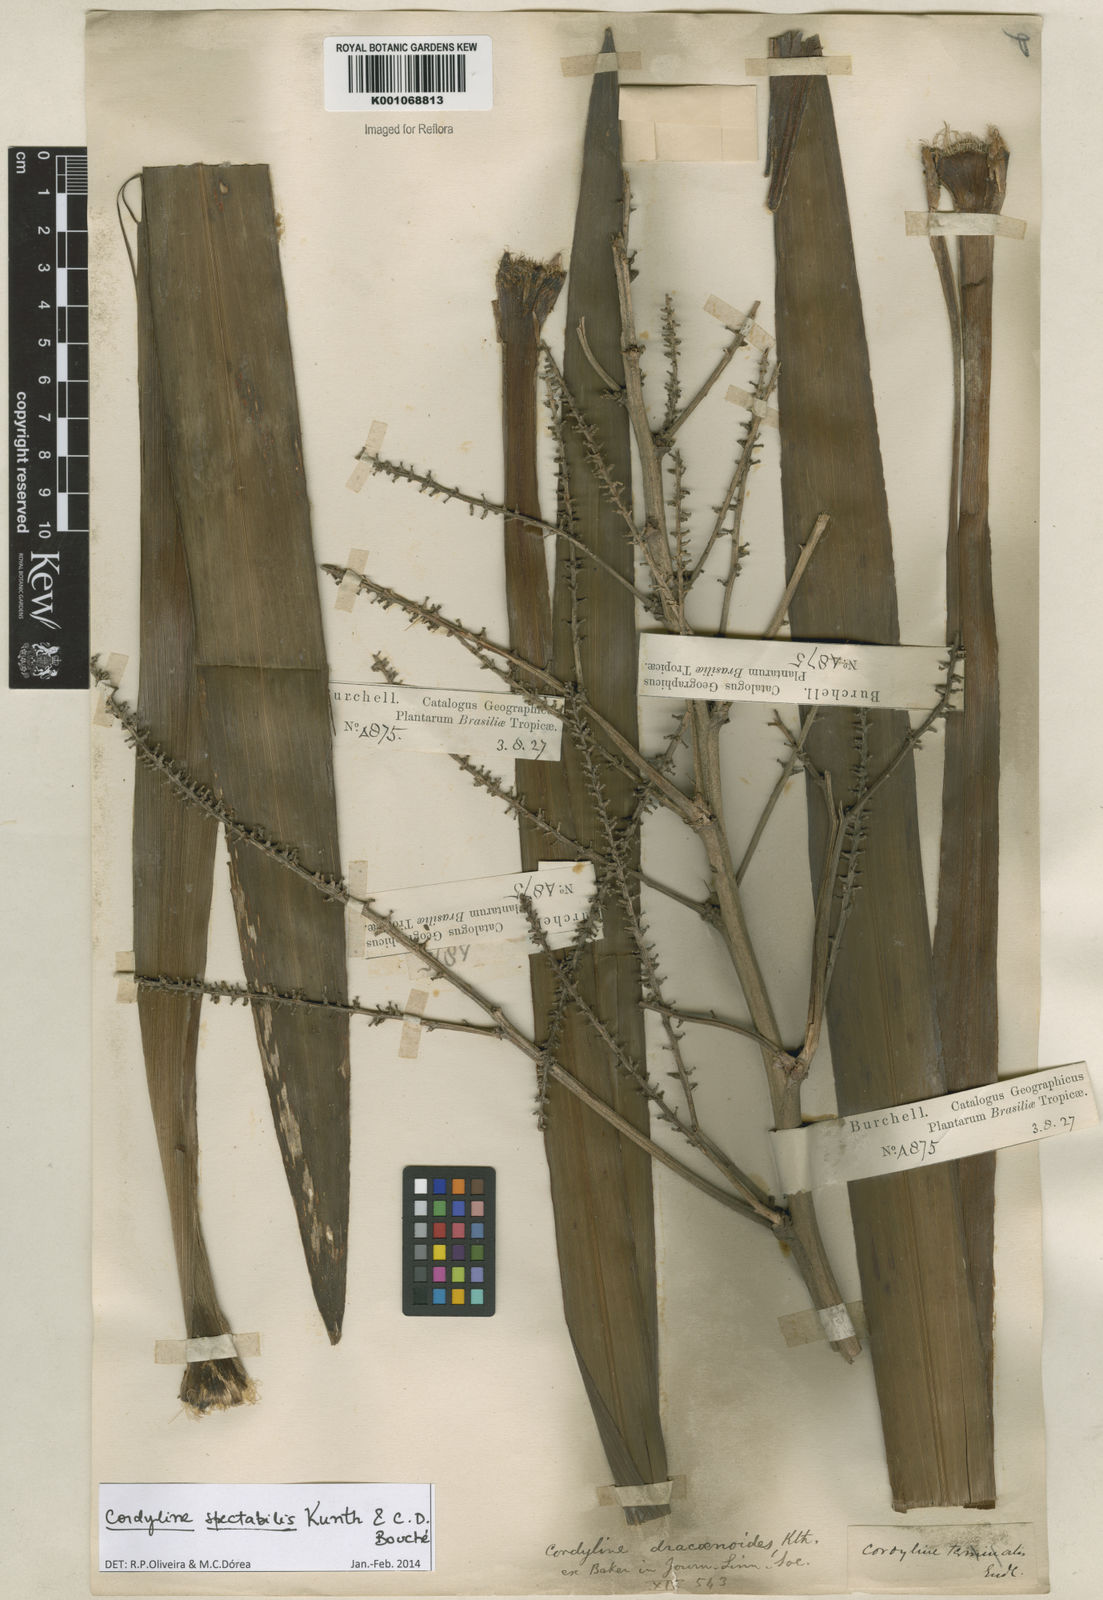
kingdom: Plantae
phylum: Tracheophyta
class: Liliopsida
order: Asparagales
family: Asparagaceae
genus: Cordyline
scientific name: Cordyline
